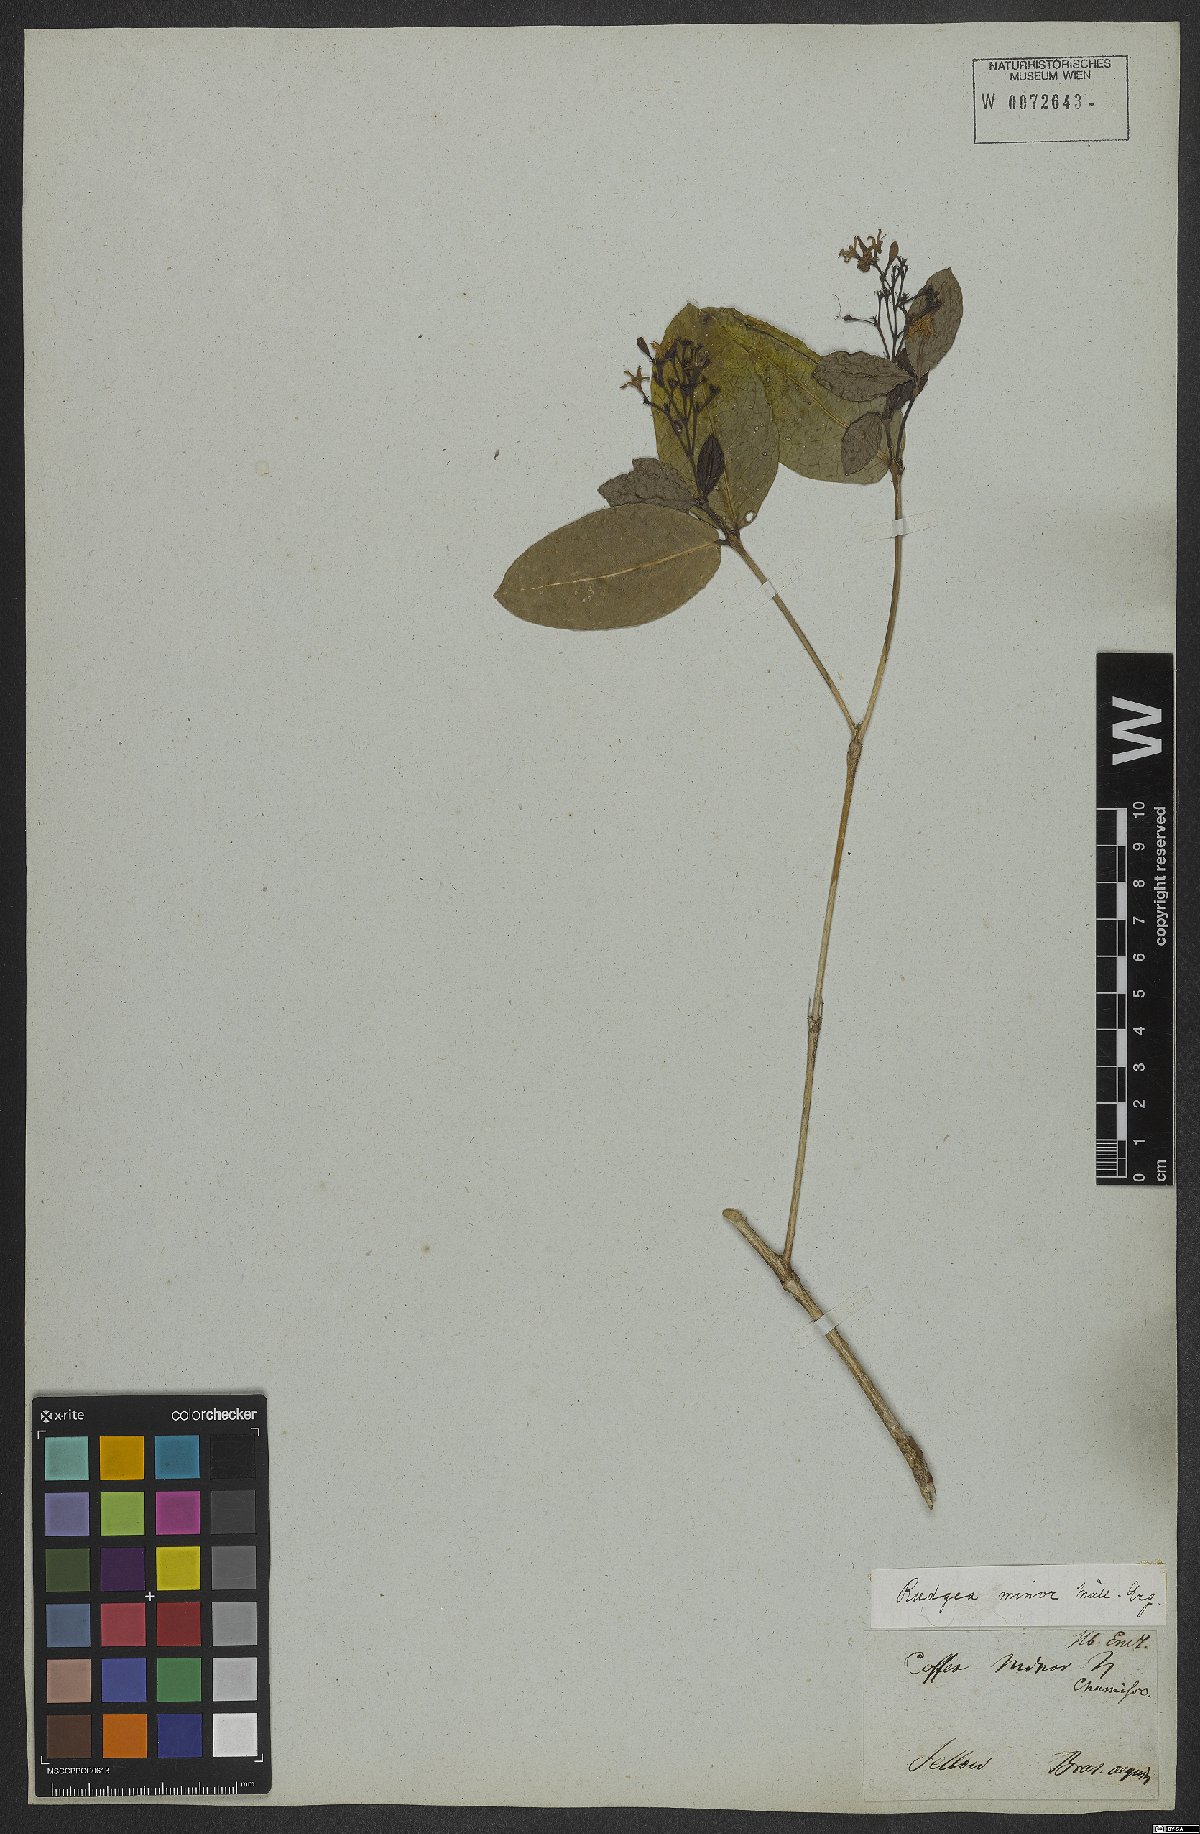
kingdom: Plantae
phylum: Tracheophyta
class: Magnoliopsida
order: Gentianales
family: Rubiaceae
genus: Rudgea
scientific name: Rudgea minor
